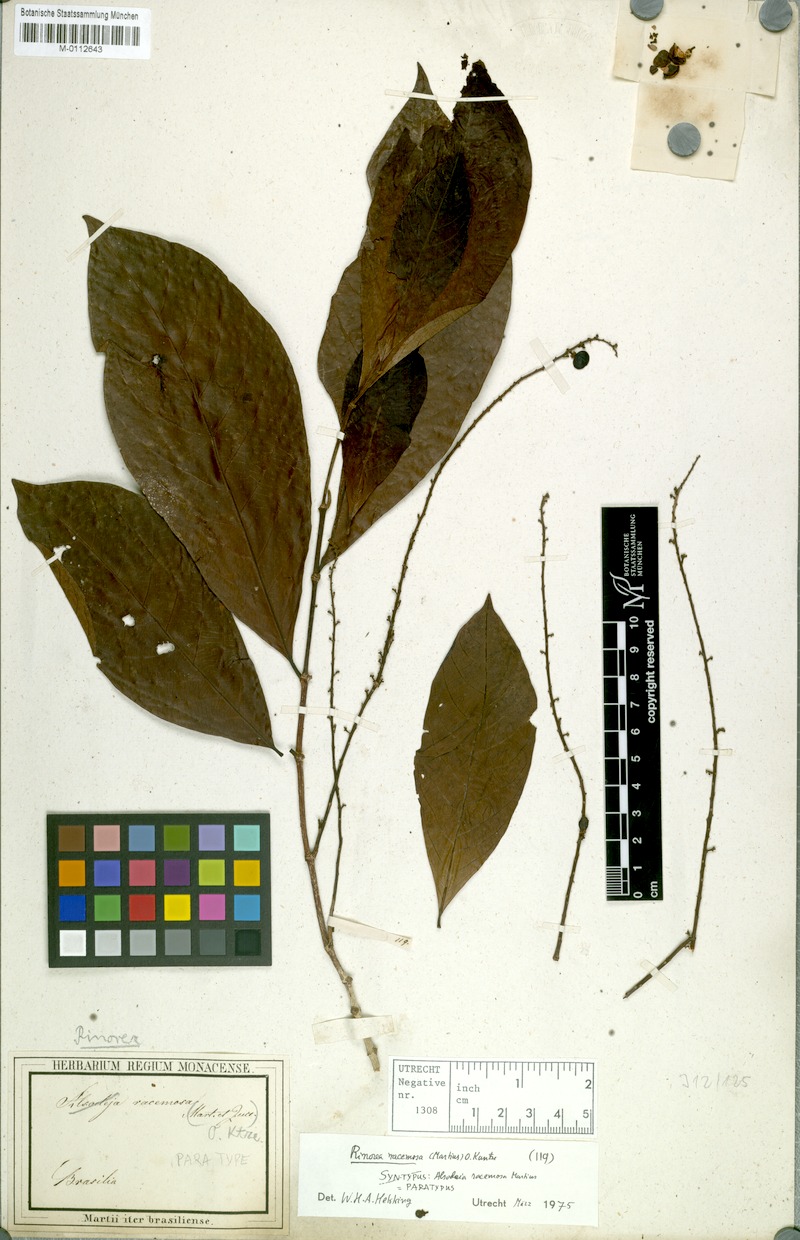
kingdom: Plantae
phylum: Tracheophyta
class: Magnoliopsida
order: Malpighiales
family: Violaceae
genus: Rinorea
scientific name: Rinorea racemosa
